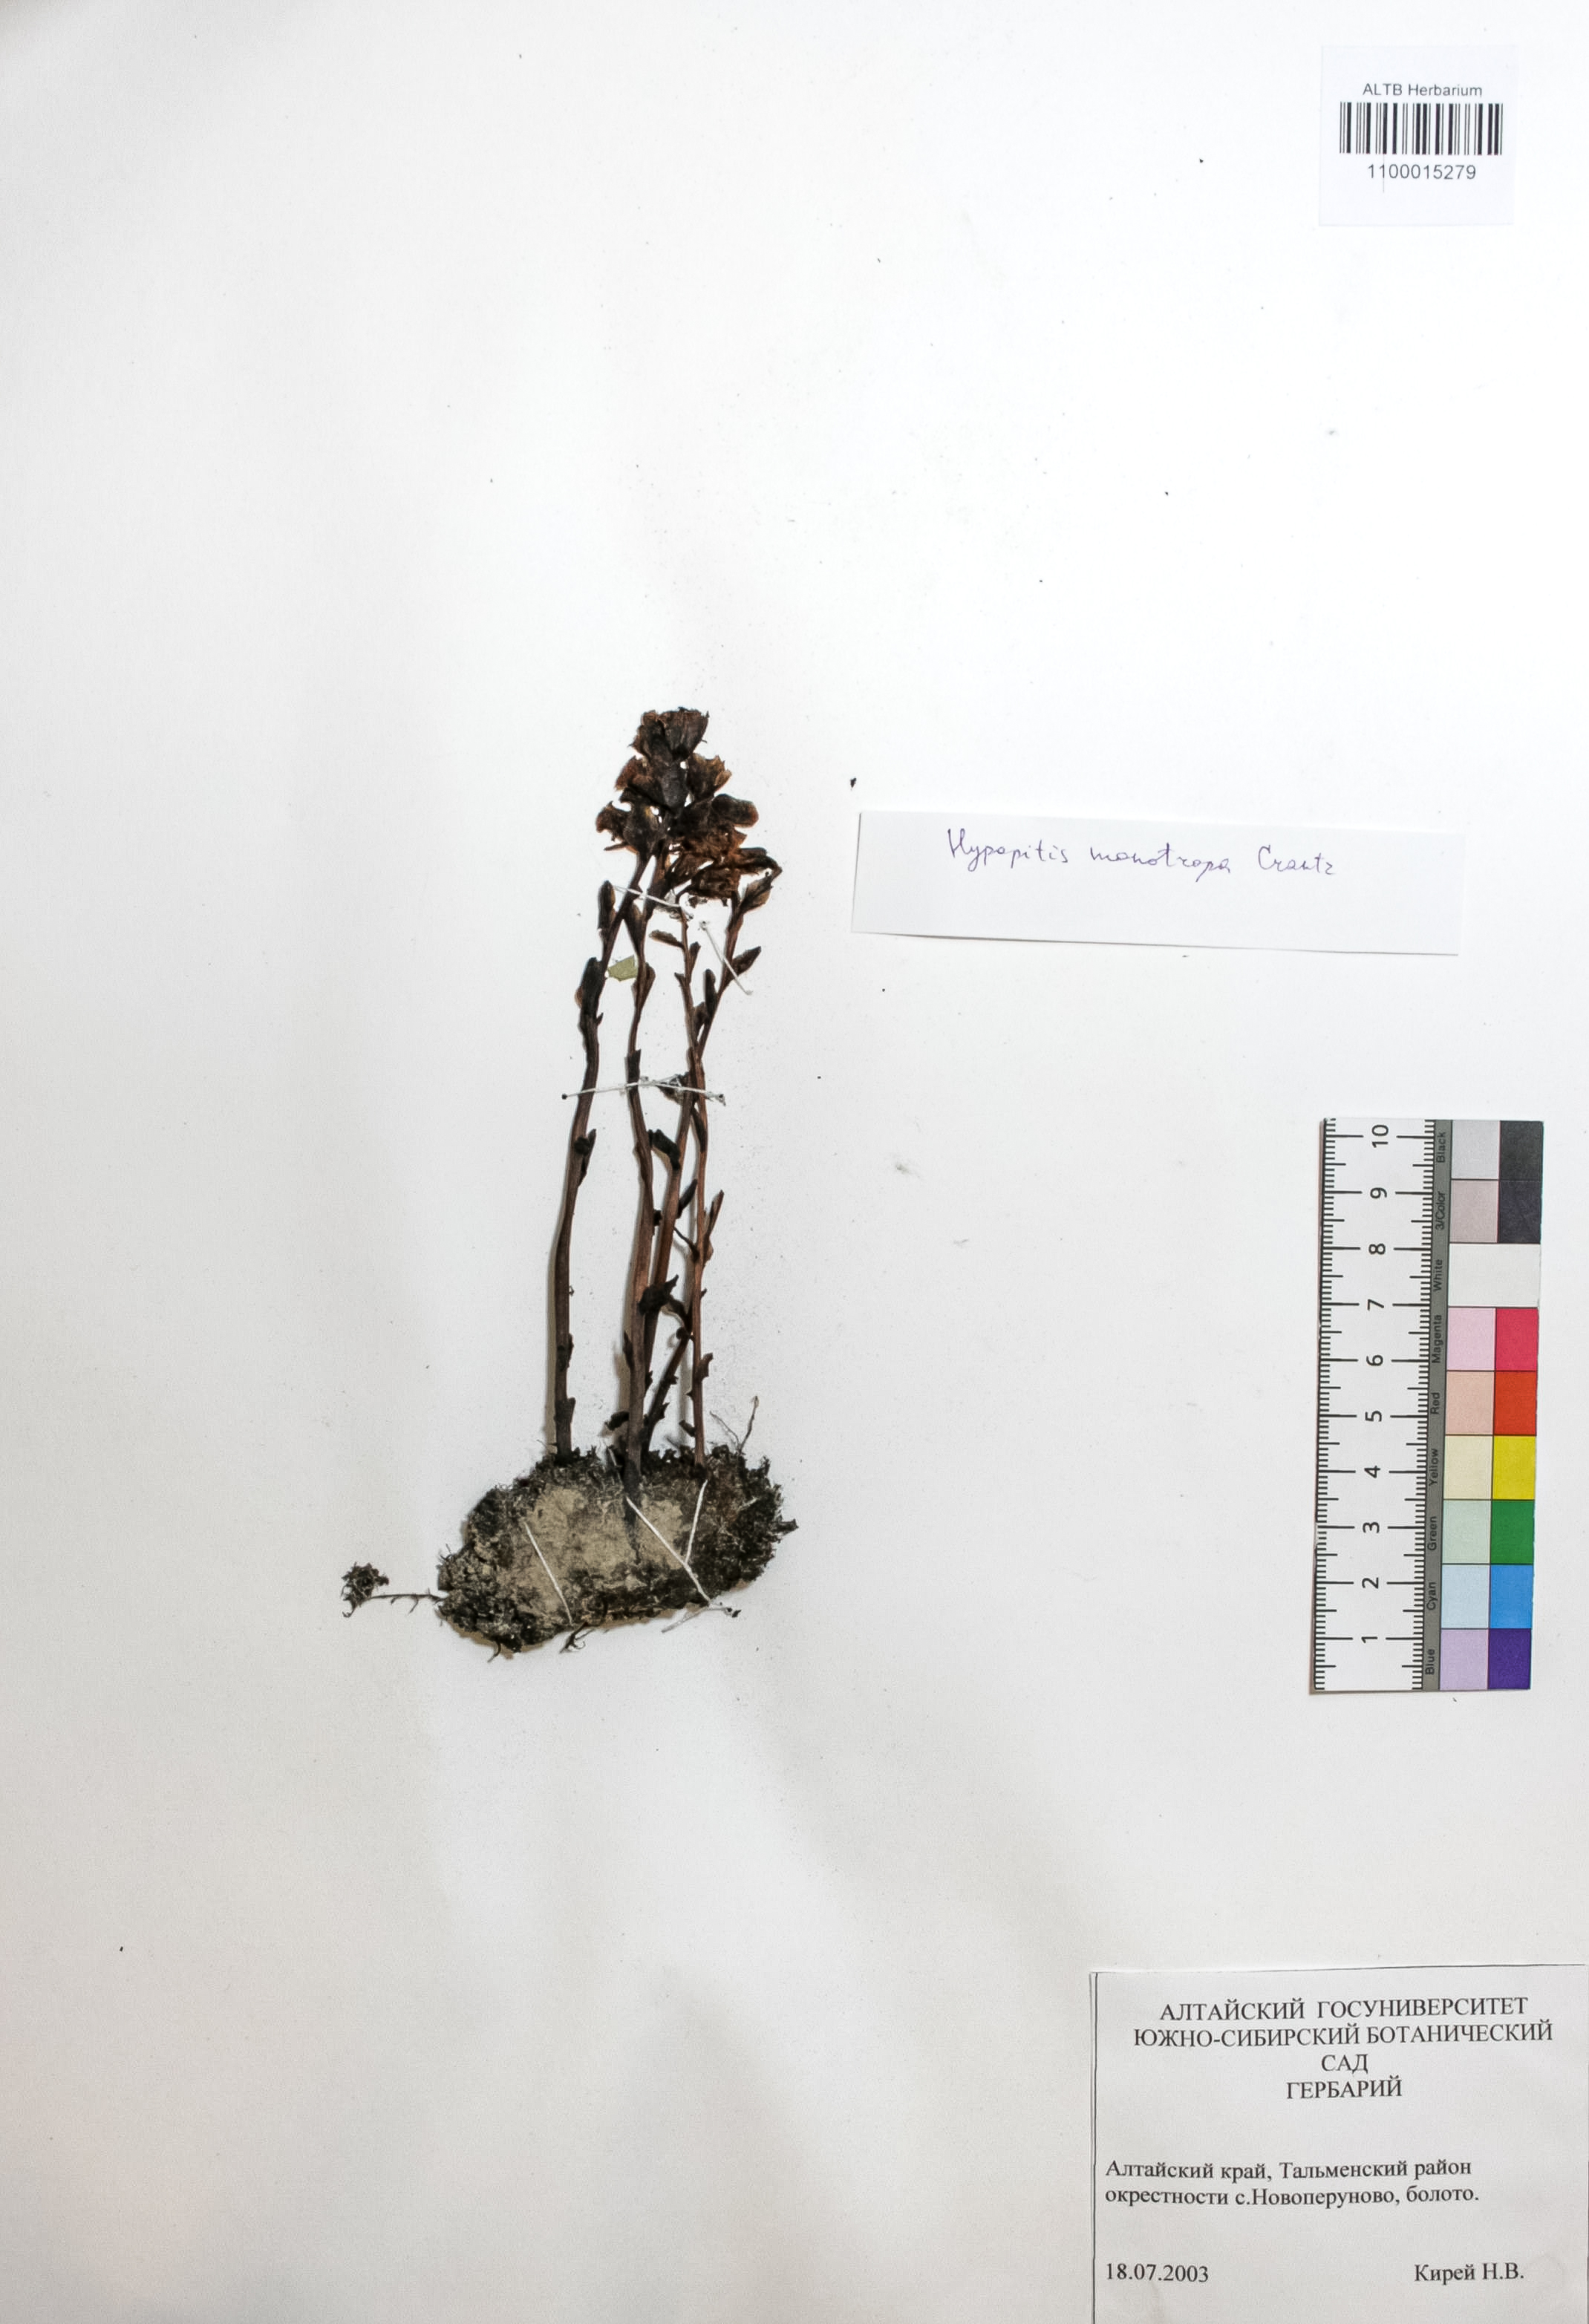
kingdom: Plantae
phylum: Tracheophyta
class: Magnoliopsida
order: Ericales
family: Ericaceae
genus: Hypopitys
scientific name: Hypopitys monotropa
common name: Yellow bird's-nest
